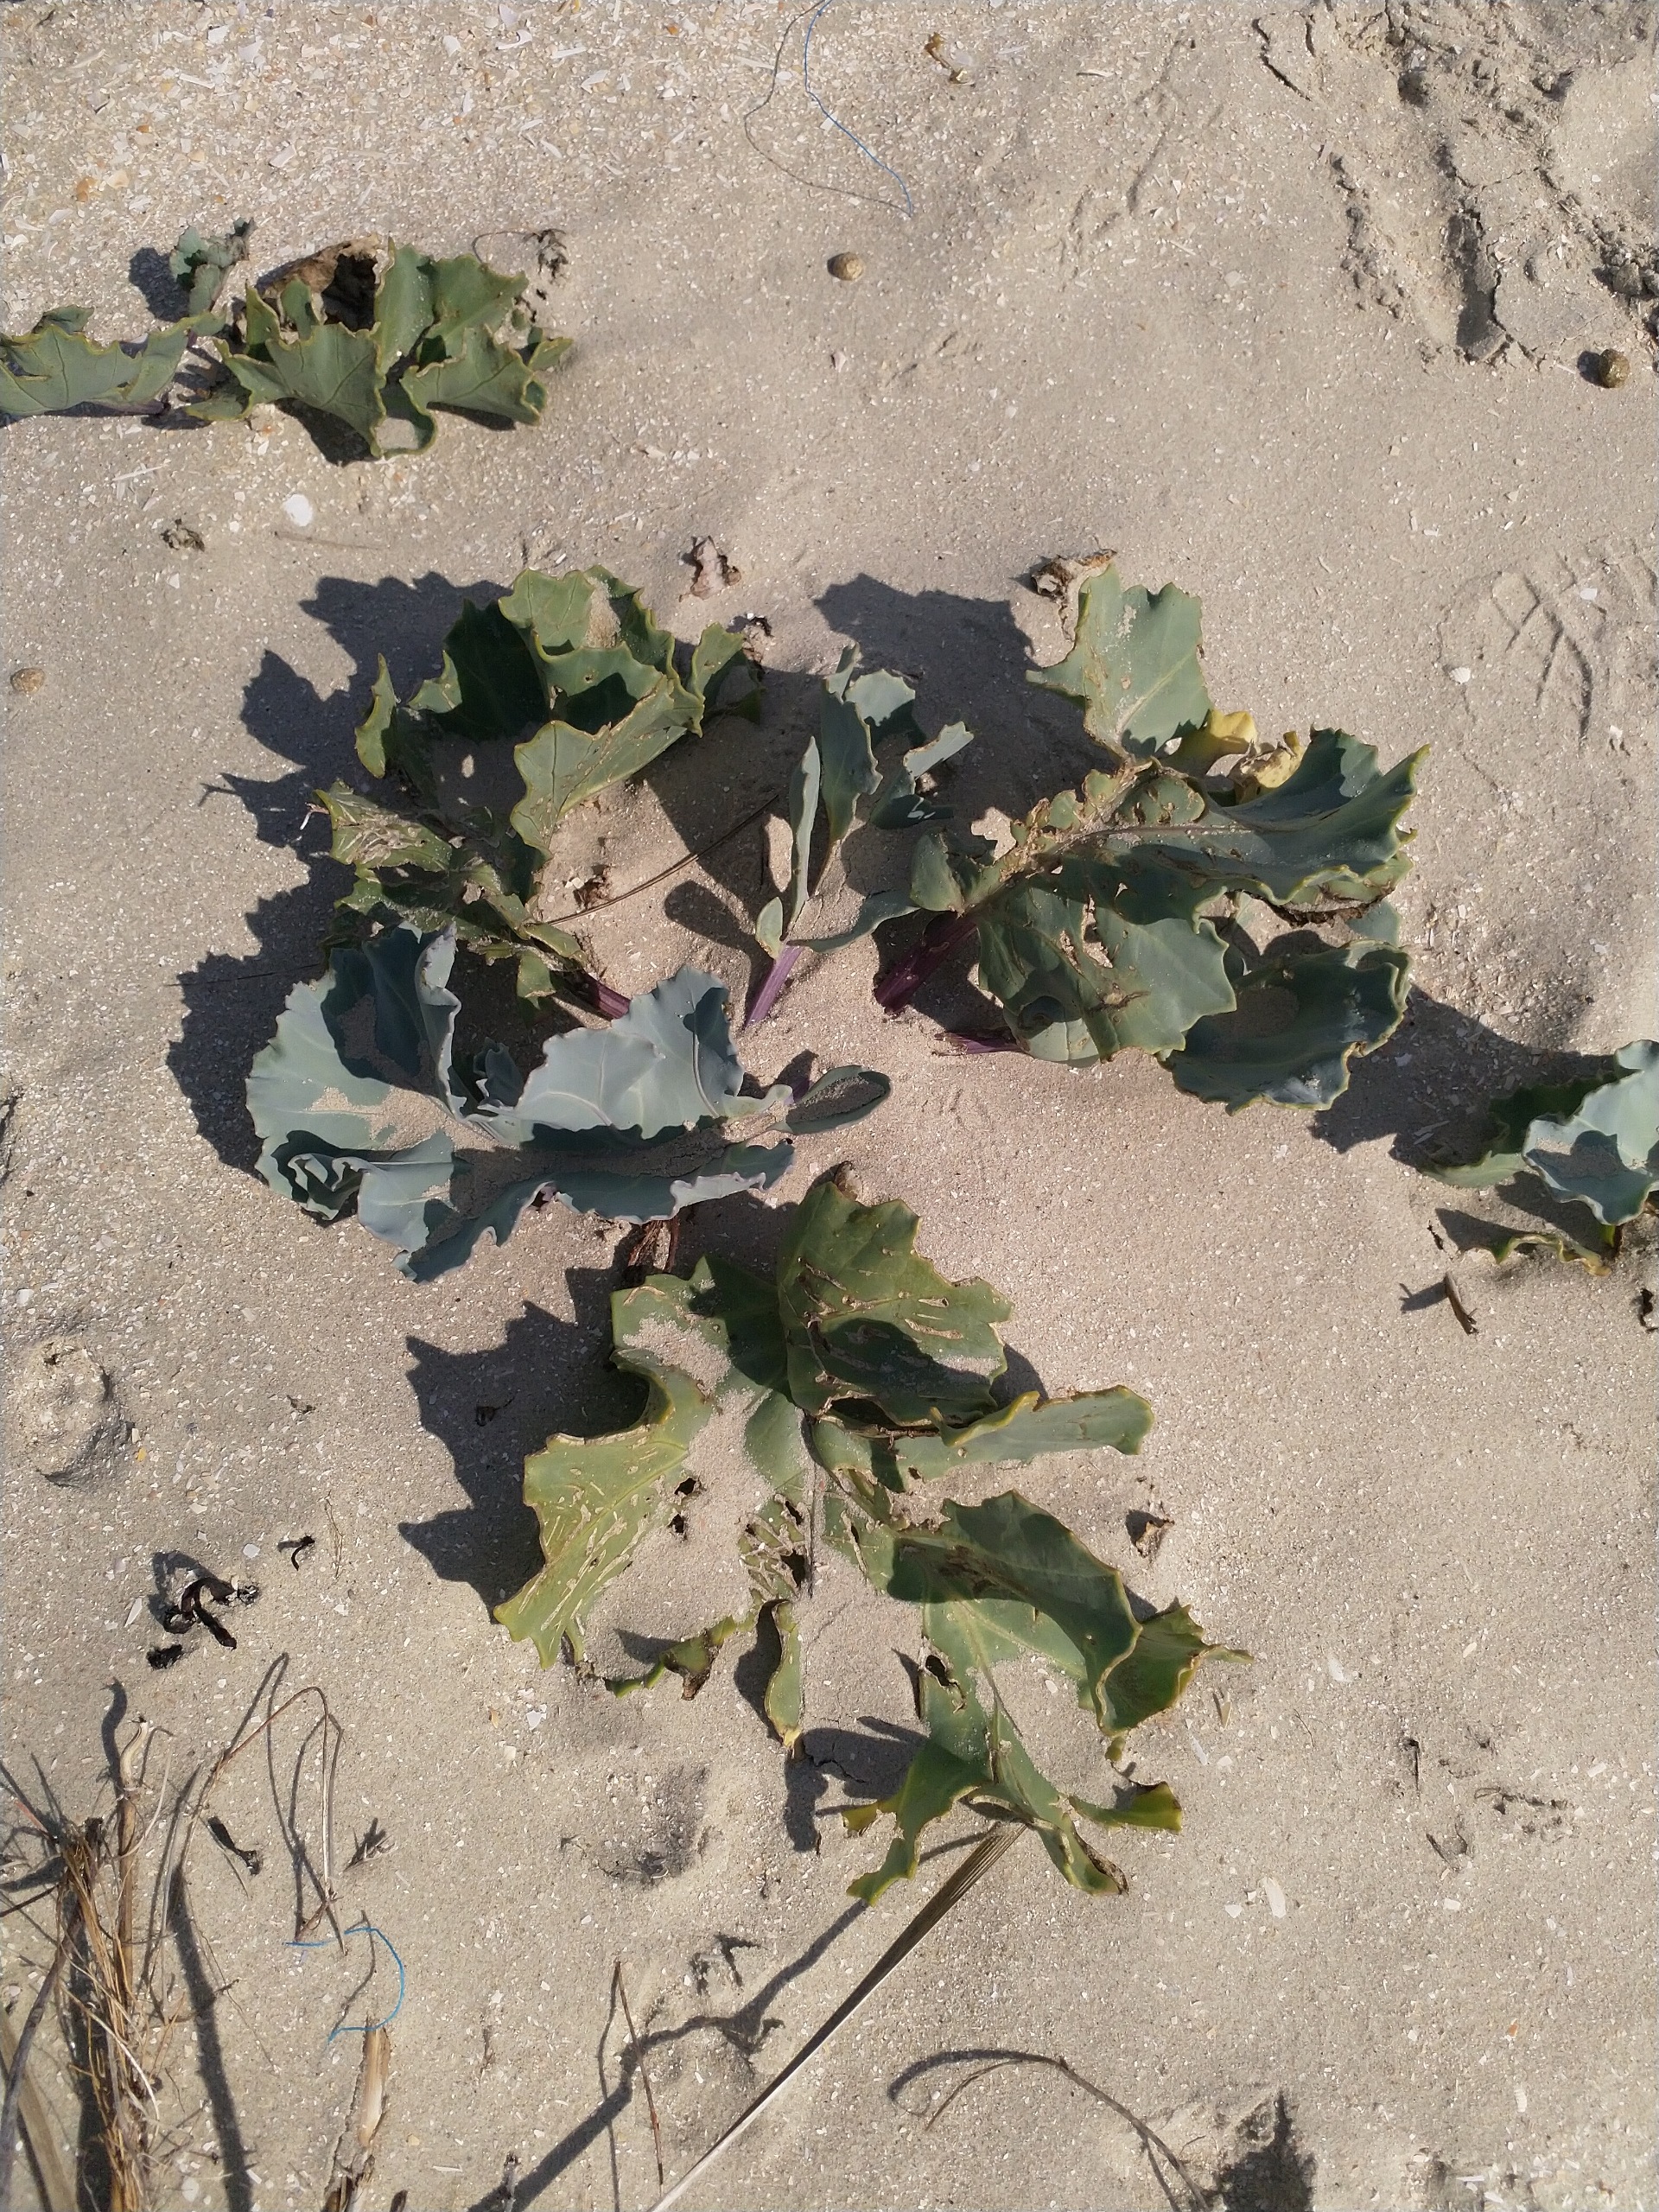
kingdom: Plantae
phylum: Tracheophyta
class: Magnoliopsida
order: Brassicales
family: Brassicaceae
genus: Crambe
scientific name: Crambe maritima
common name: Strandkål
